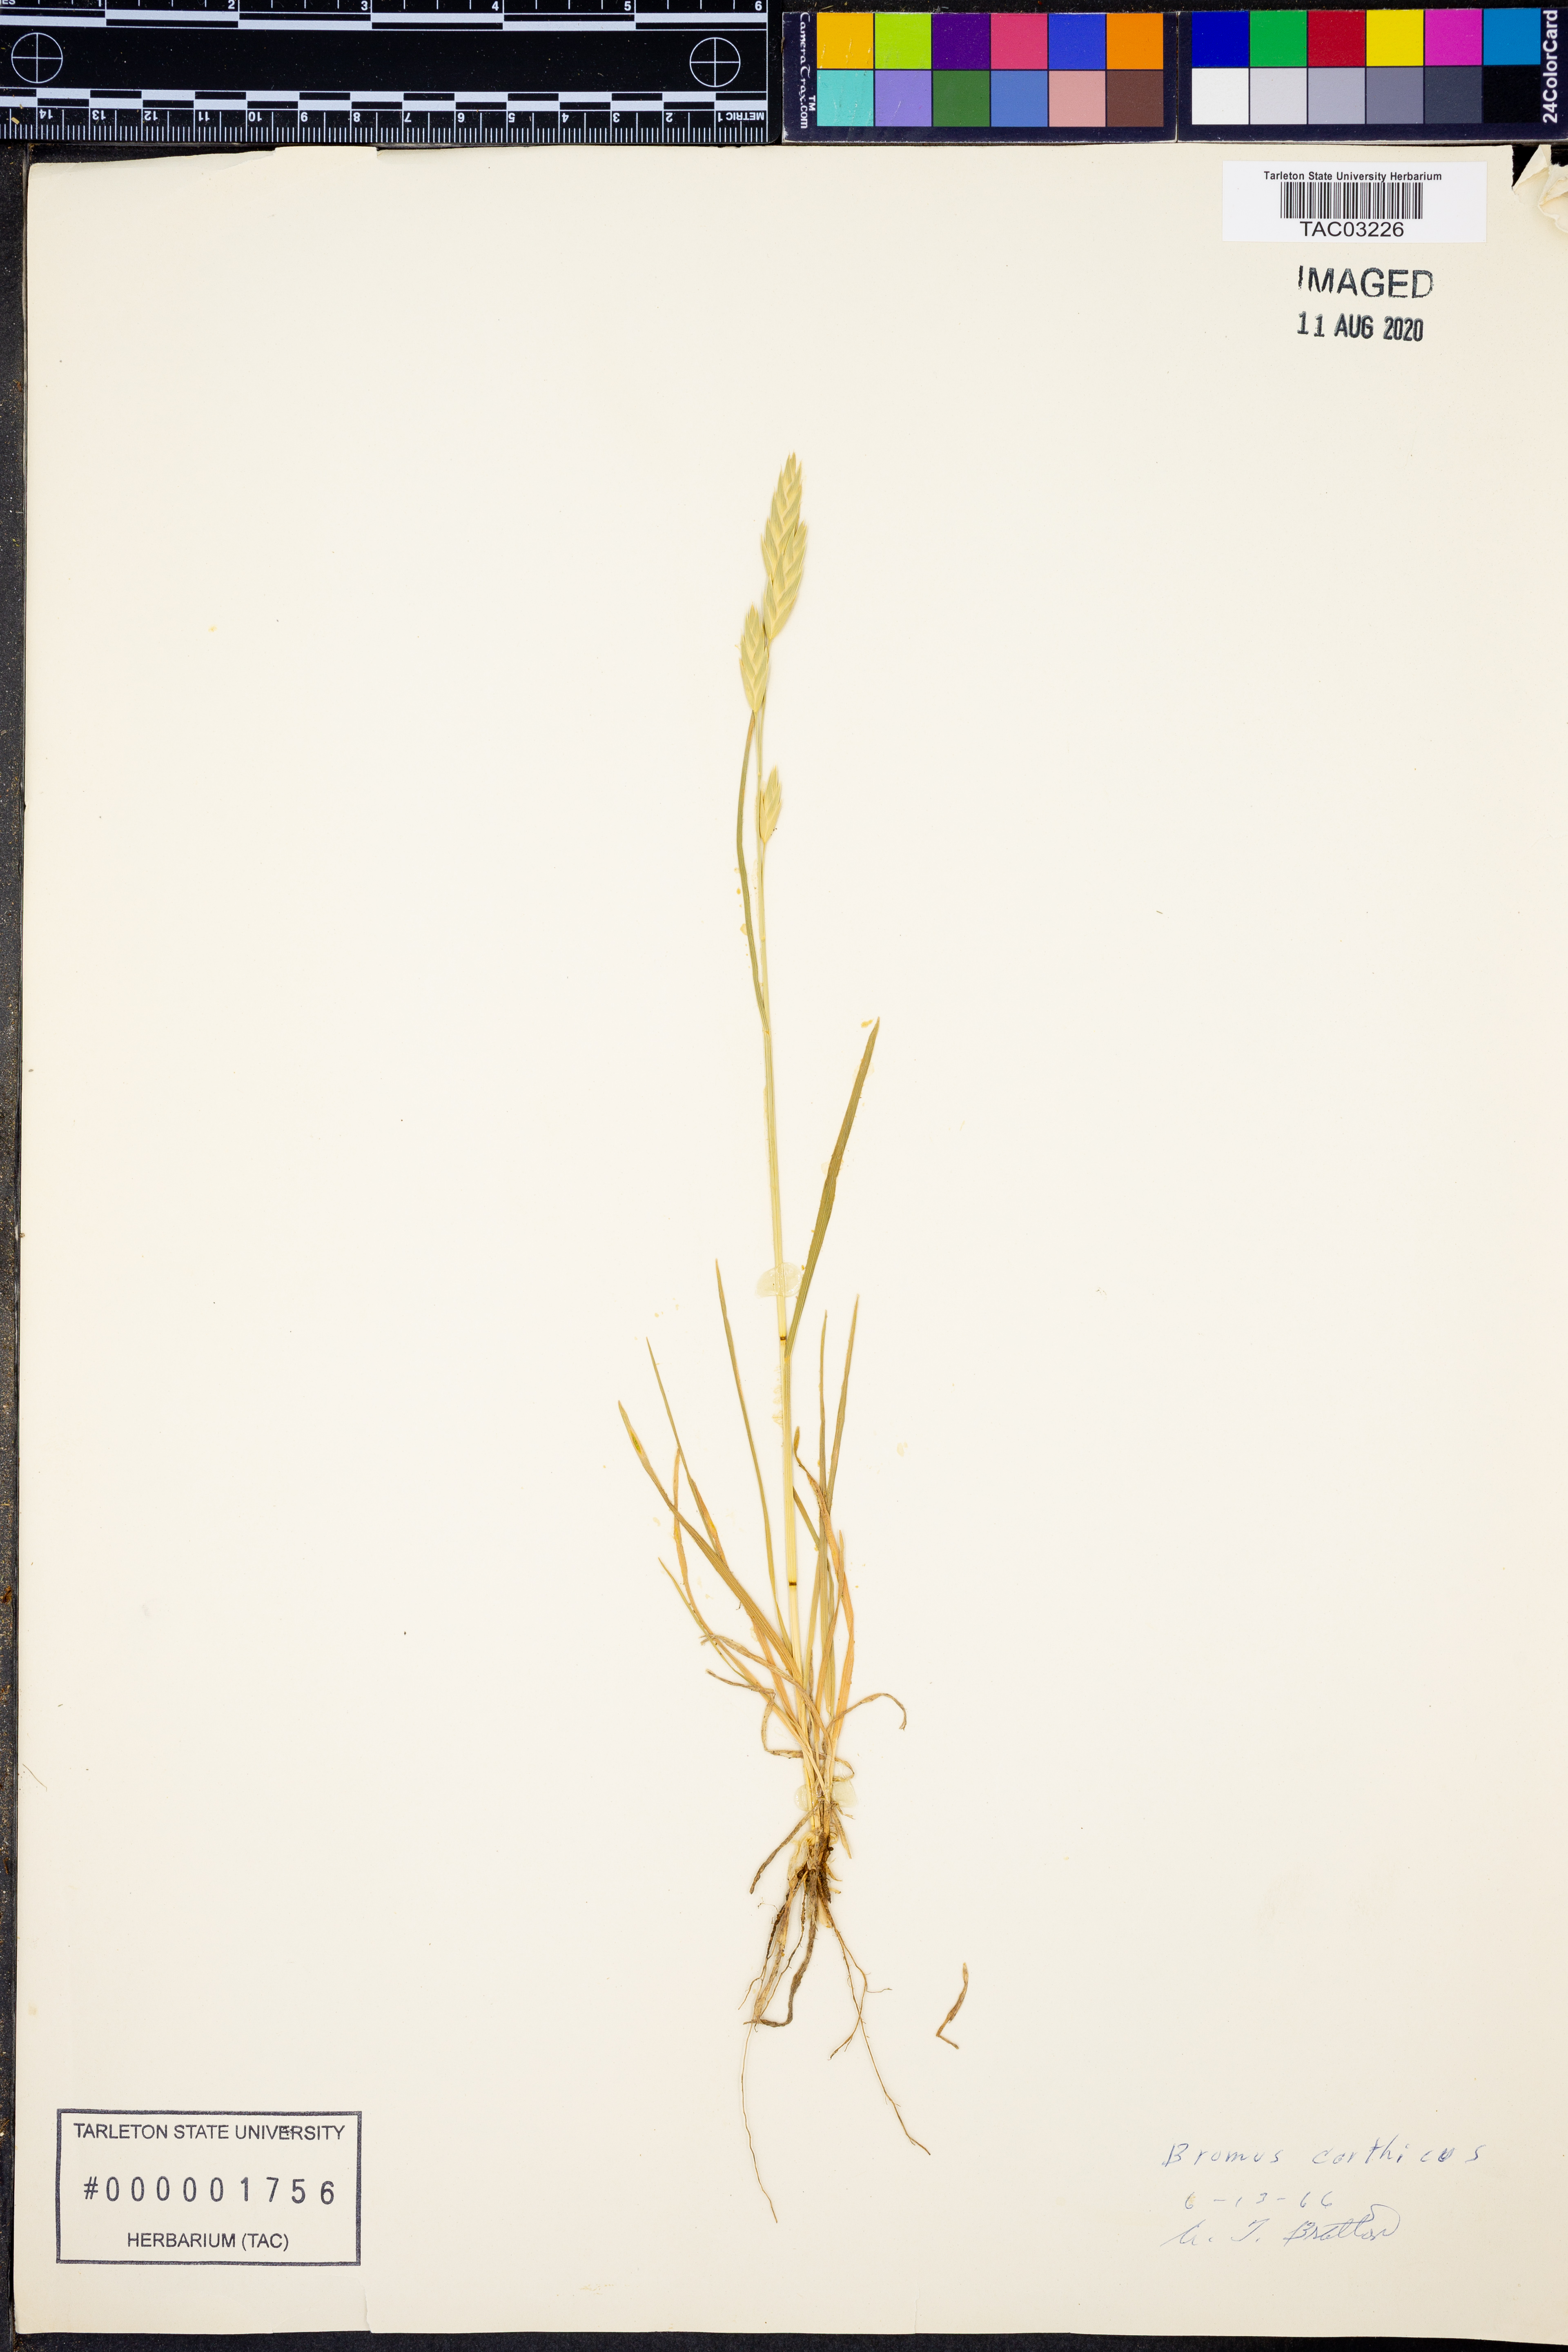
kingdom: Plantae
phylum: Tracheophyta
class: Liliopsida
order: Poales
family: Poaceae
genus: Bromus
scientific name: Bromus catharticus
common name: Rescuegrass
